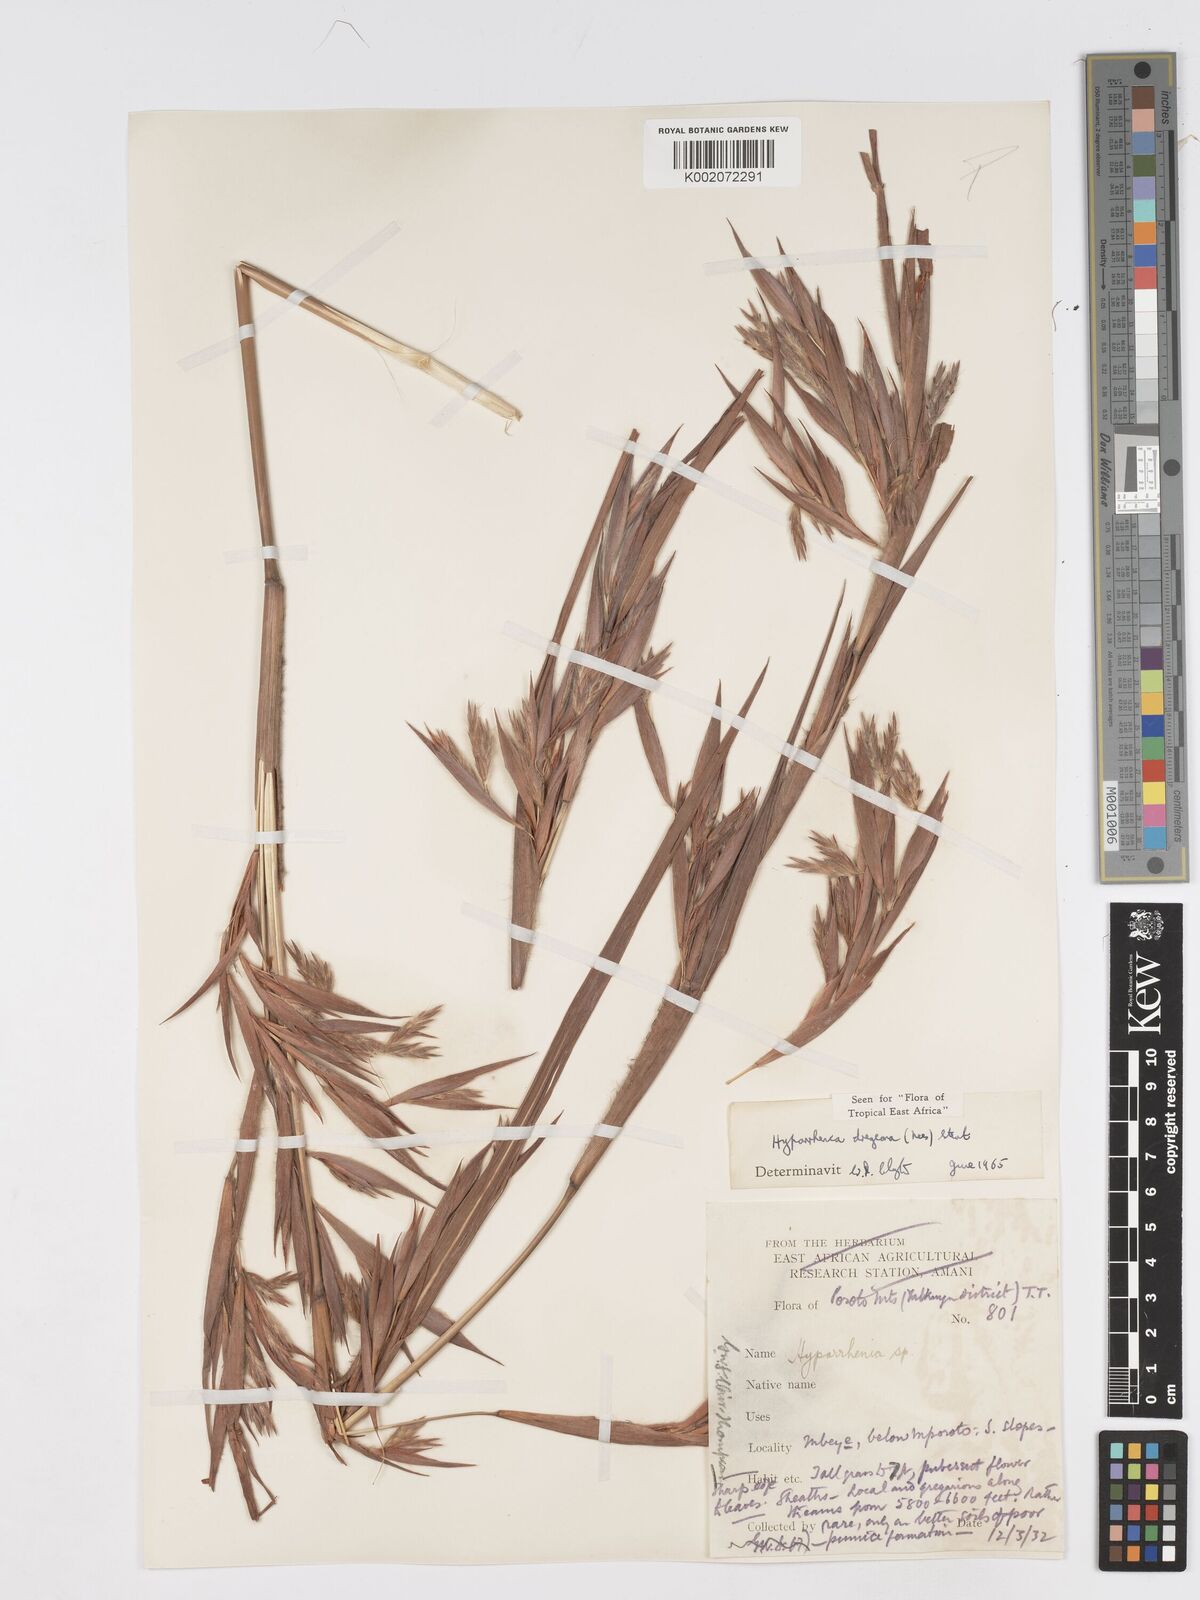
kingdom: Plantae
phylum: Tracheophyta
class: Liliopsida
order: Poales
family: Poaceae
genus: Hyparrhenia
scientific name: Hyparrhenia dregeana
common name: Silky thatching grass
